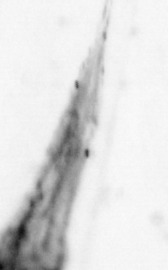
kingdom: Animalia
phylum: Chaetognatha
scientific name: Chaetognatha
